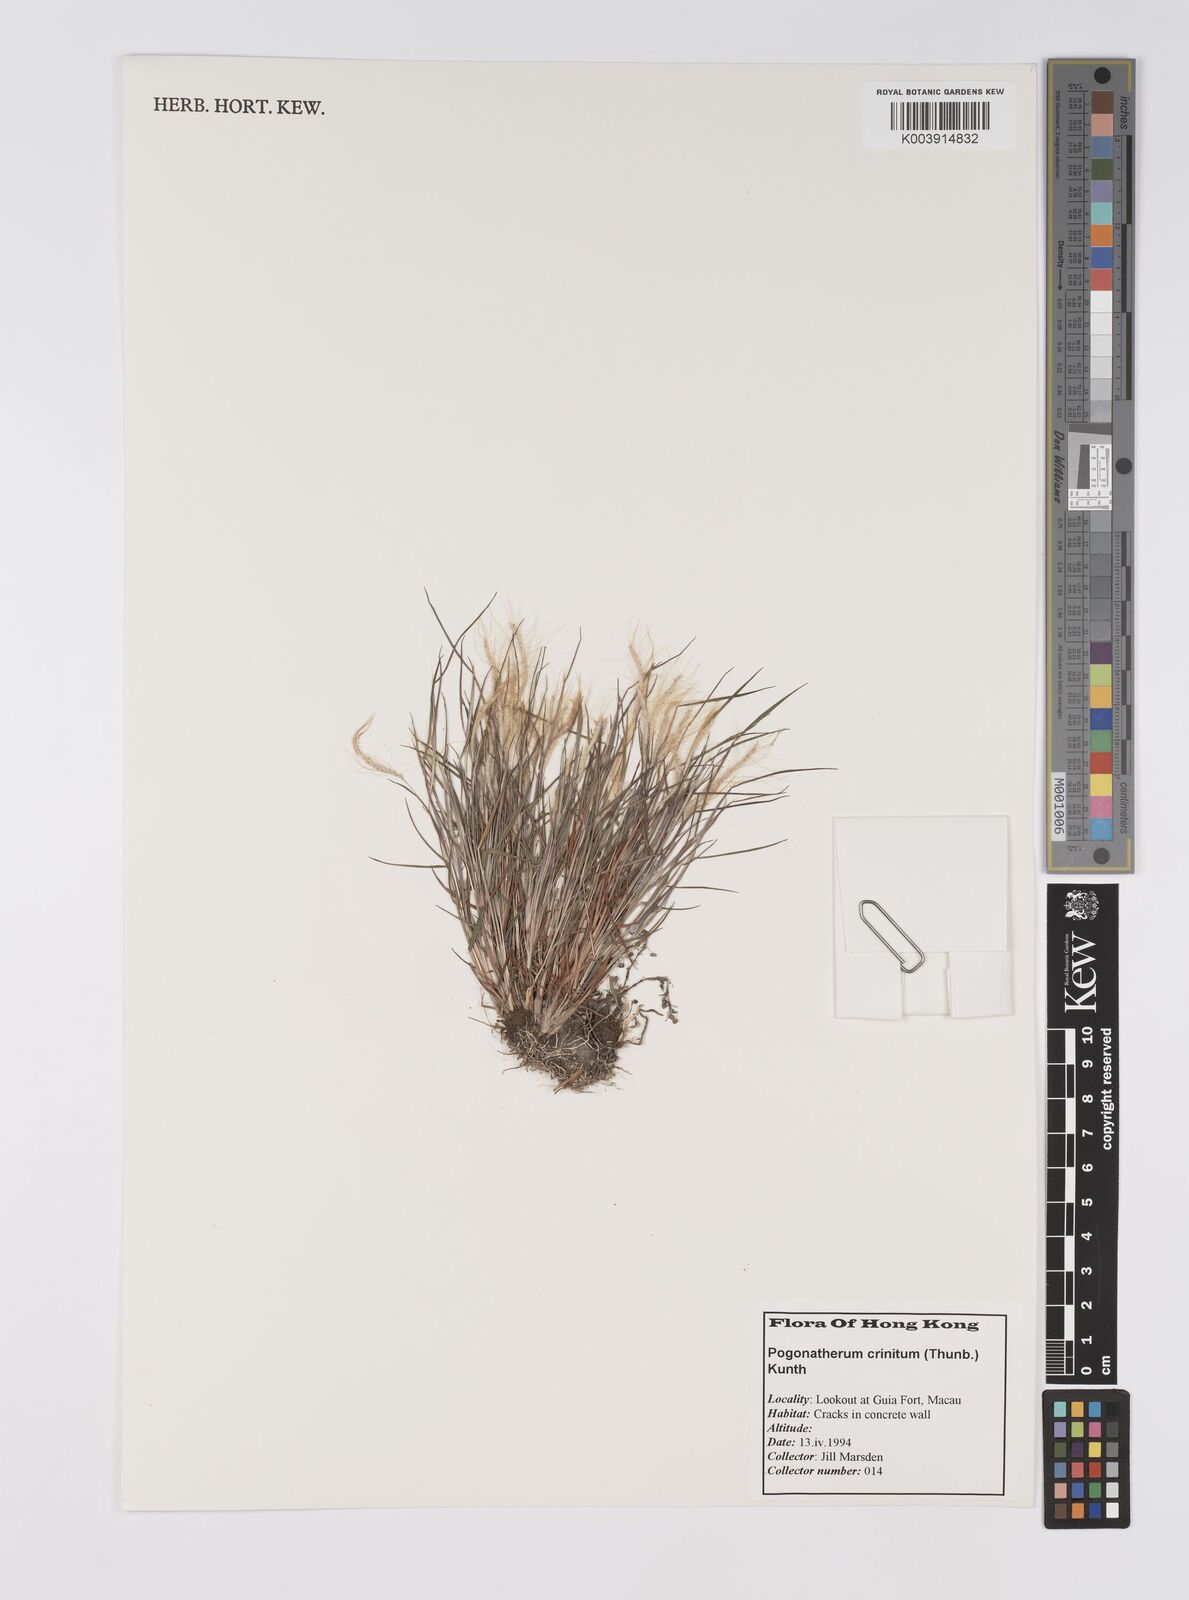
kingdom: Plantae
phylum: Tracheophyta
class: Liliopsida
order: Poales
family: Poaceae
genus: Pogonatherum
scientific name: Pogonatherum crinitum
